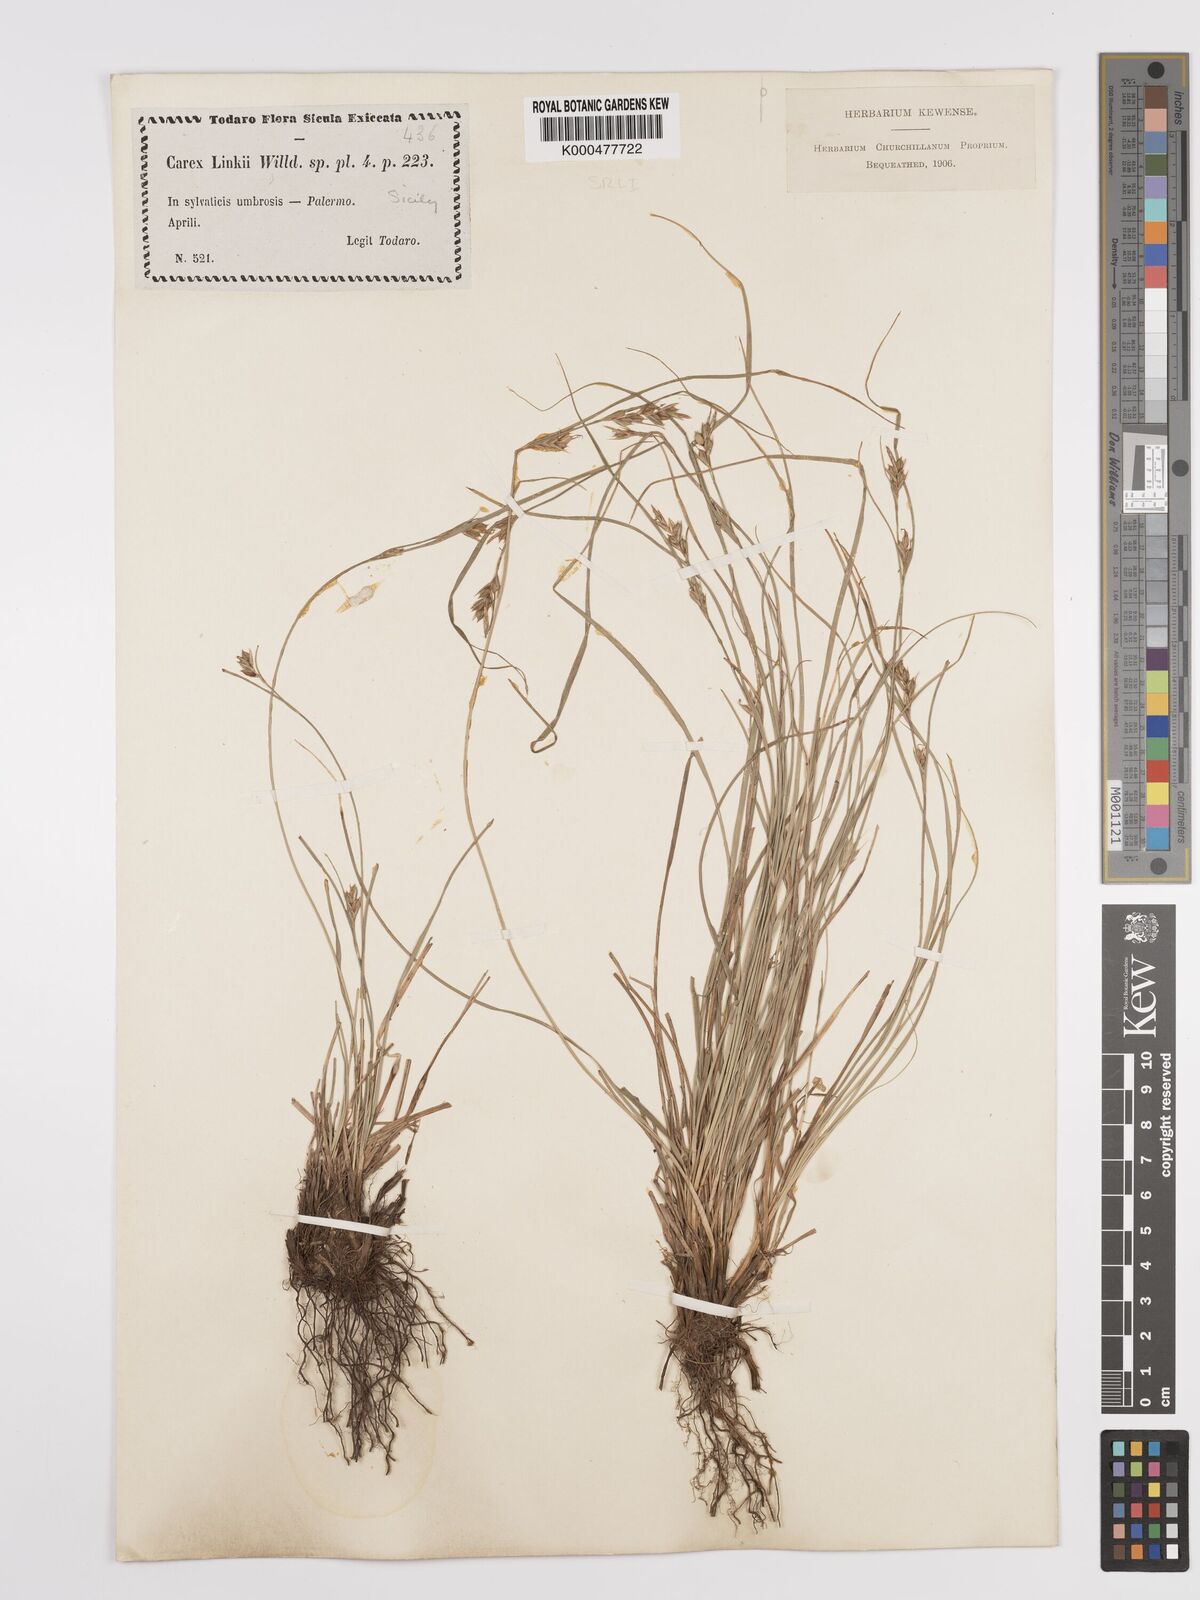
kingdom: Plantae
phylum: Tracheophyta
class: Liliopsida
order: Poales
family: Cyperaceae
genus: Carex
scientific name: Carex distachya
